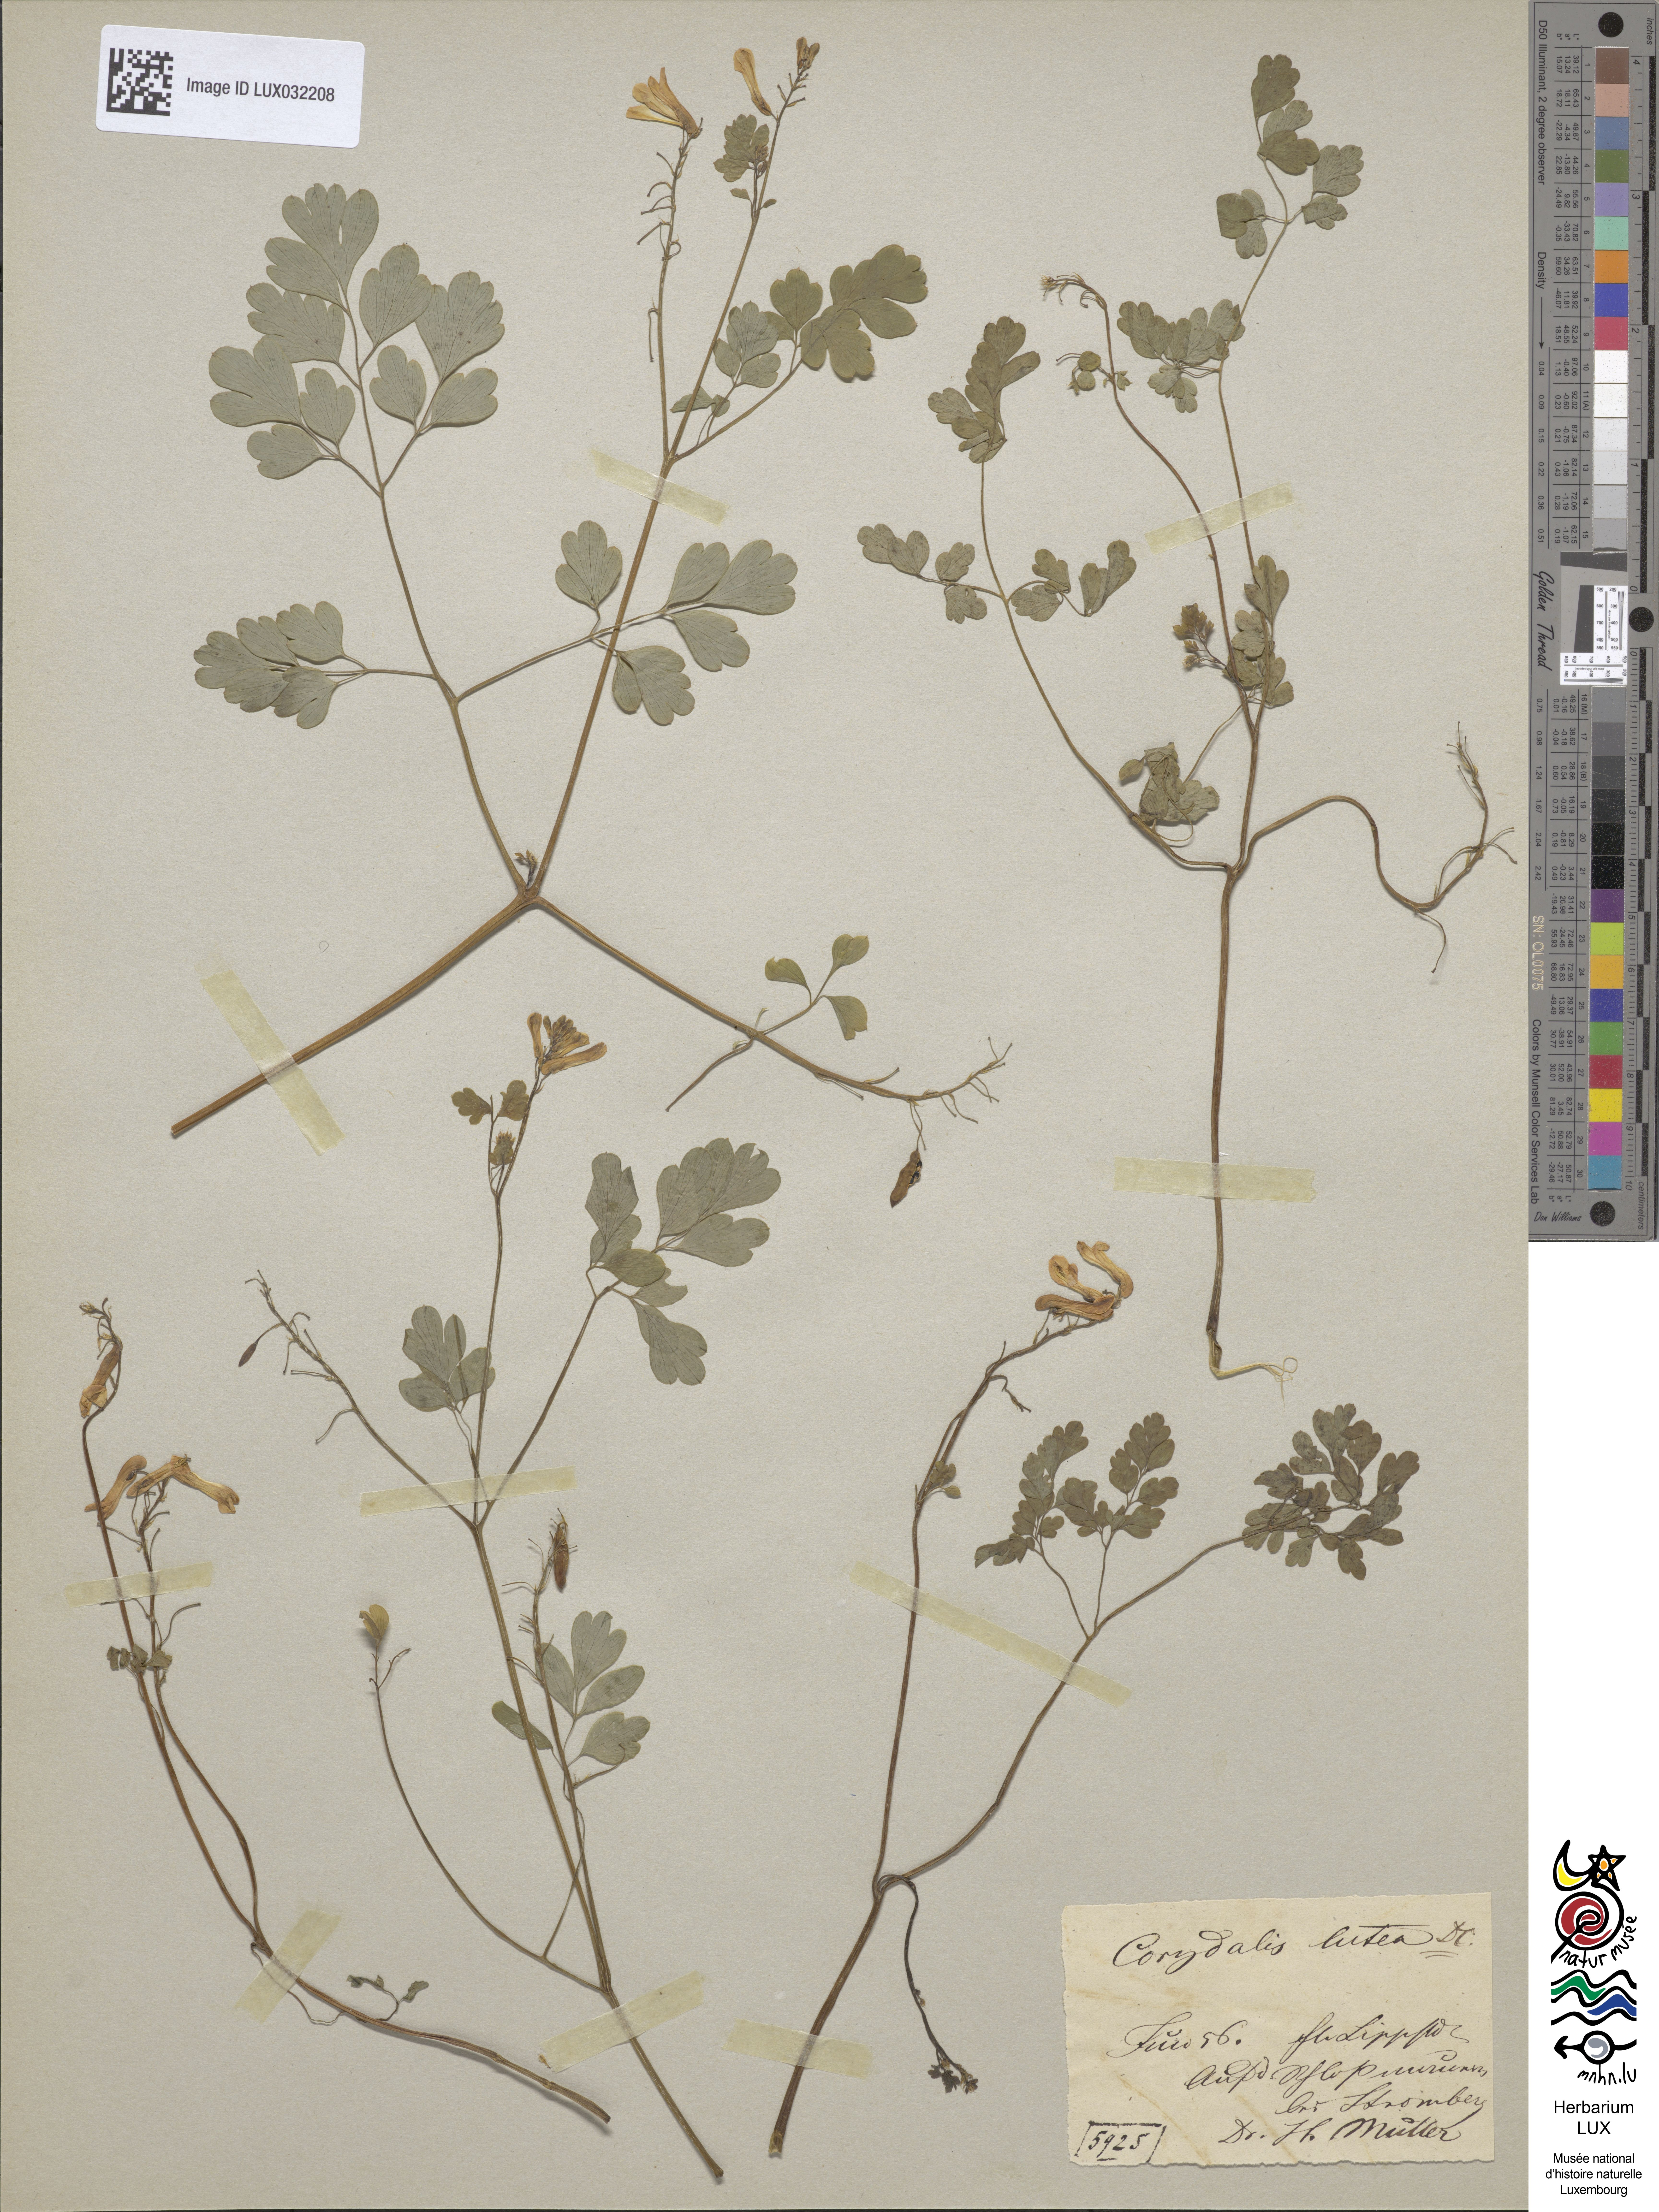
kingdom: Plantae
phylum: Tracheophyta
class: Magnoliopsida
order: Ranunculales
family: Papaveraceae
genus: Pseudofumaria
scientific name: Pseudofumaria lutea
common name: Yellow corydalis
